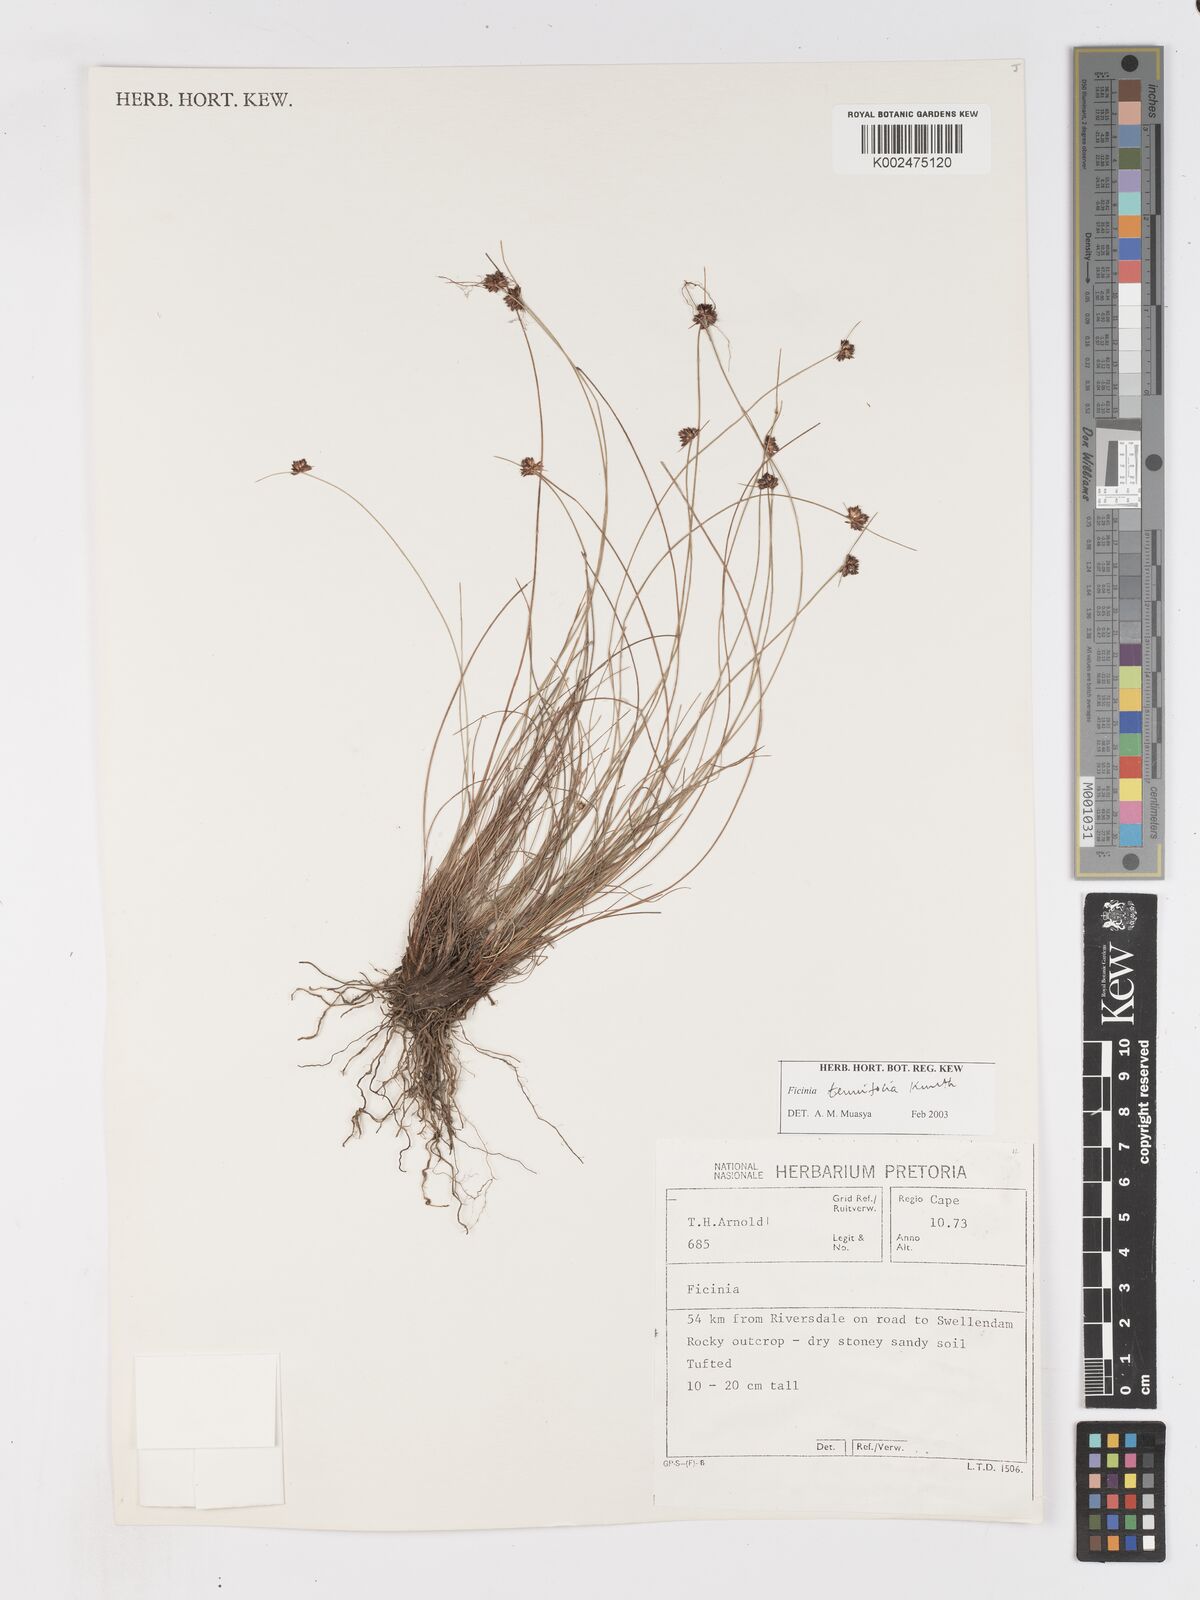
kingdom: Plantae
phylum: Tracheophyta
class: Liliopsida
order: Poales
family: Cyperaceae
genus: Ficinia
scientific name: Ficinia filiformis
